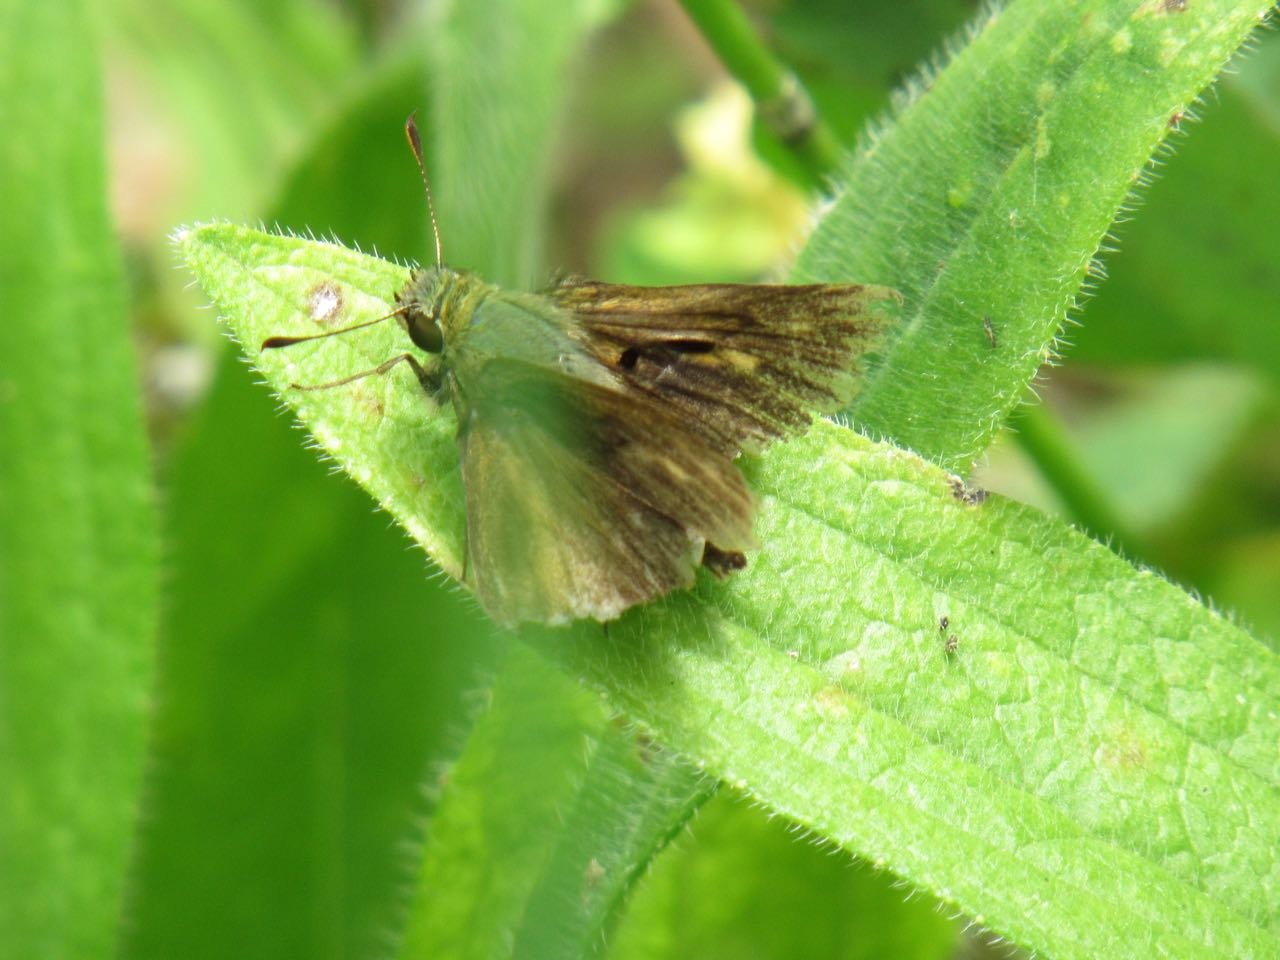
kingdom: Animalia
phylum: Arthropoda
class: Insecta
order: Lepidoptera
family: Hesperiidae
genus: Polites
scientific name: Polites egeremet
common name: Northern Broken-Dash
